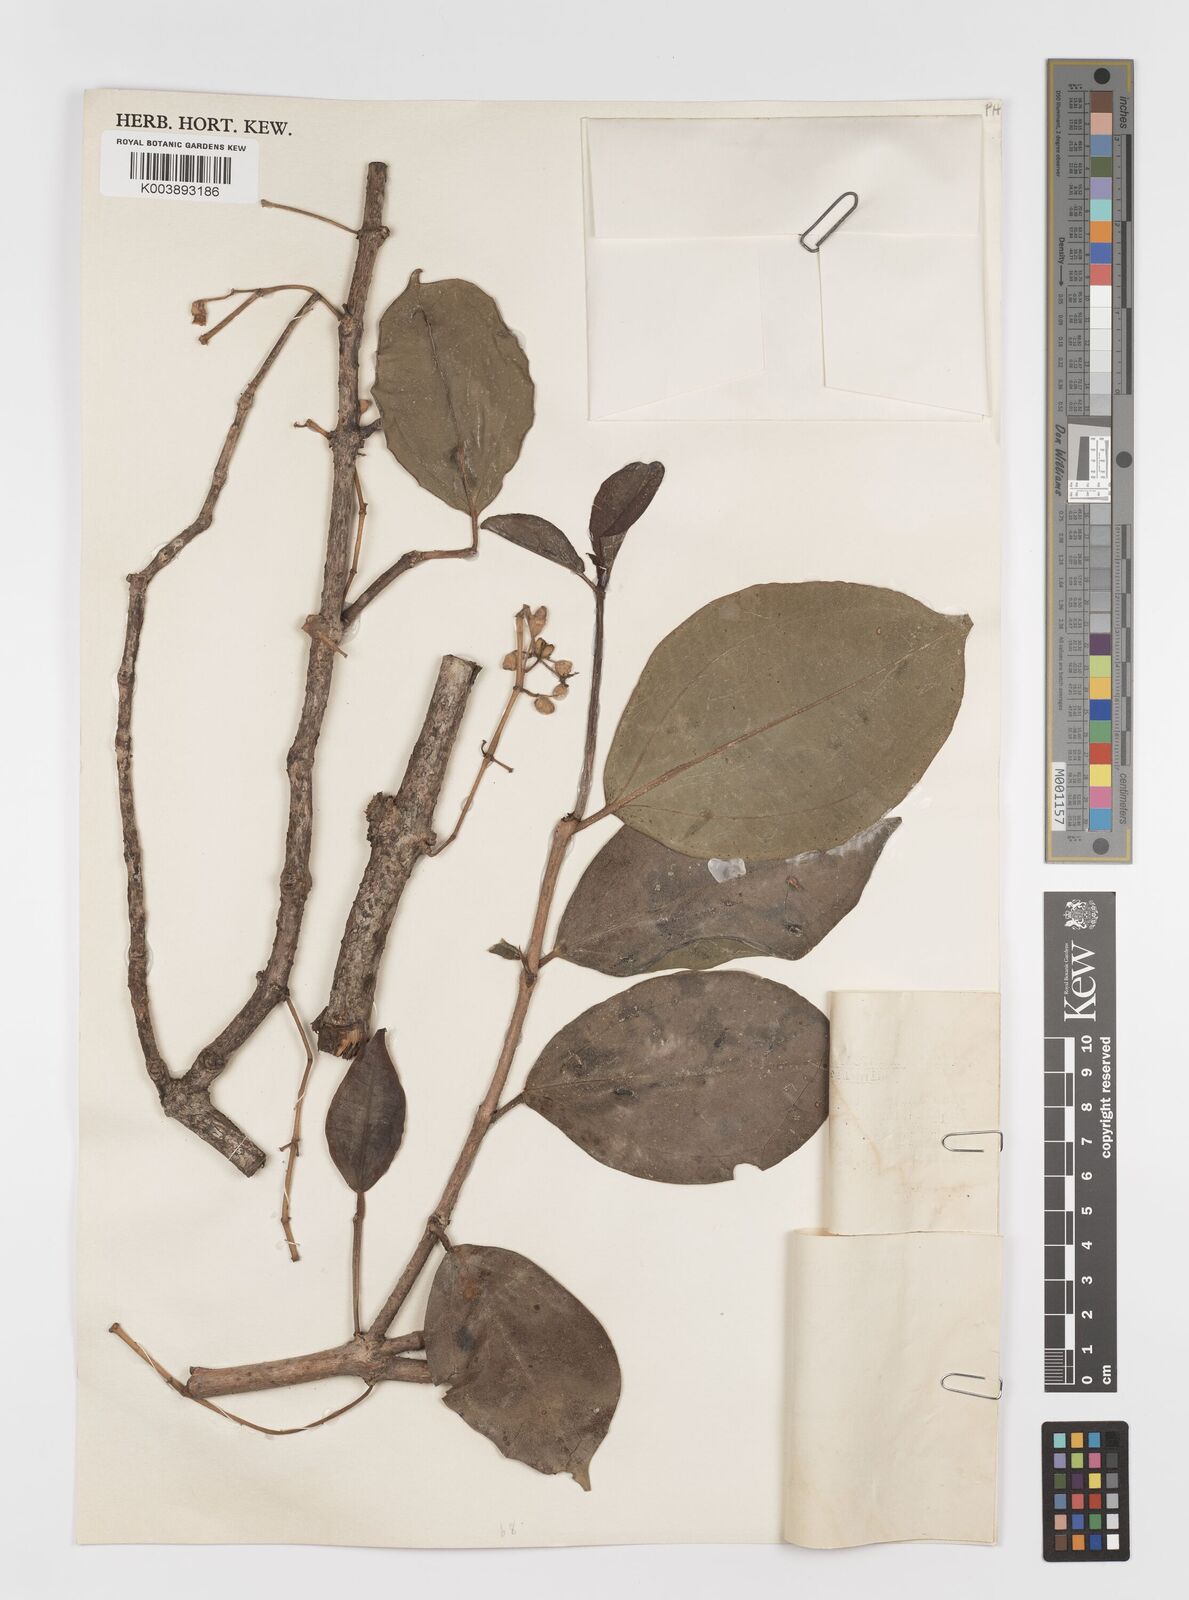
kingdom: Plantae
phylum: Tracheophyta
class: Magnoliopsida
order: Myrtales
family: Melastomataceae
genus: Medinilla
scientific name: Medinilla
